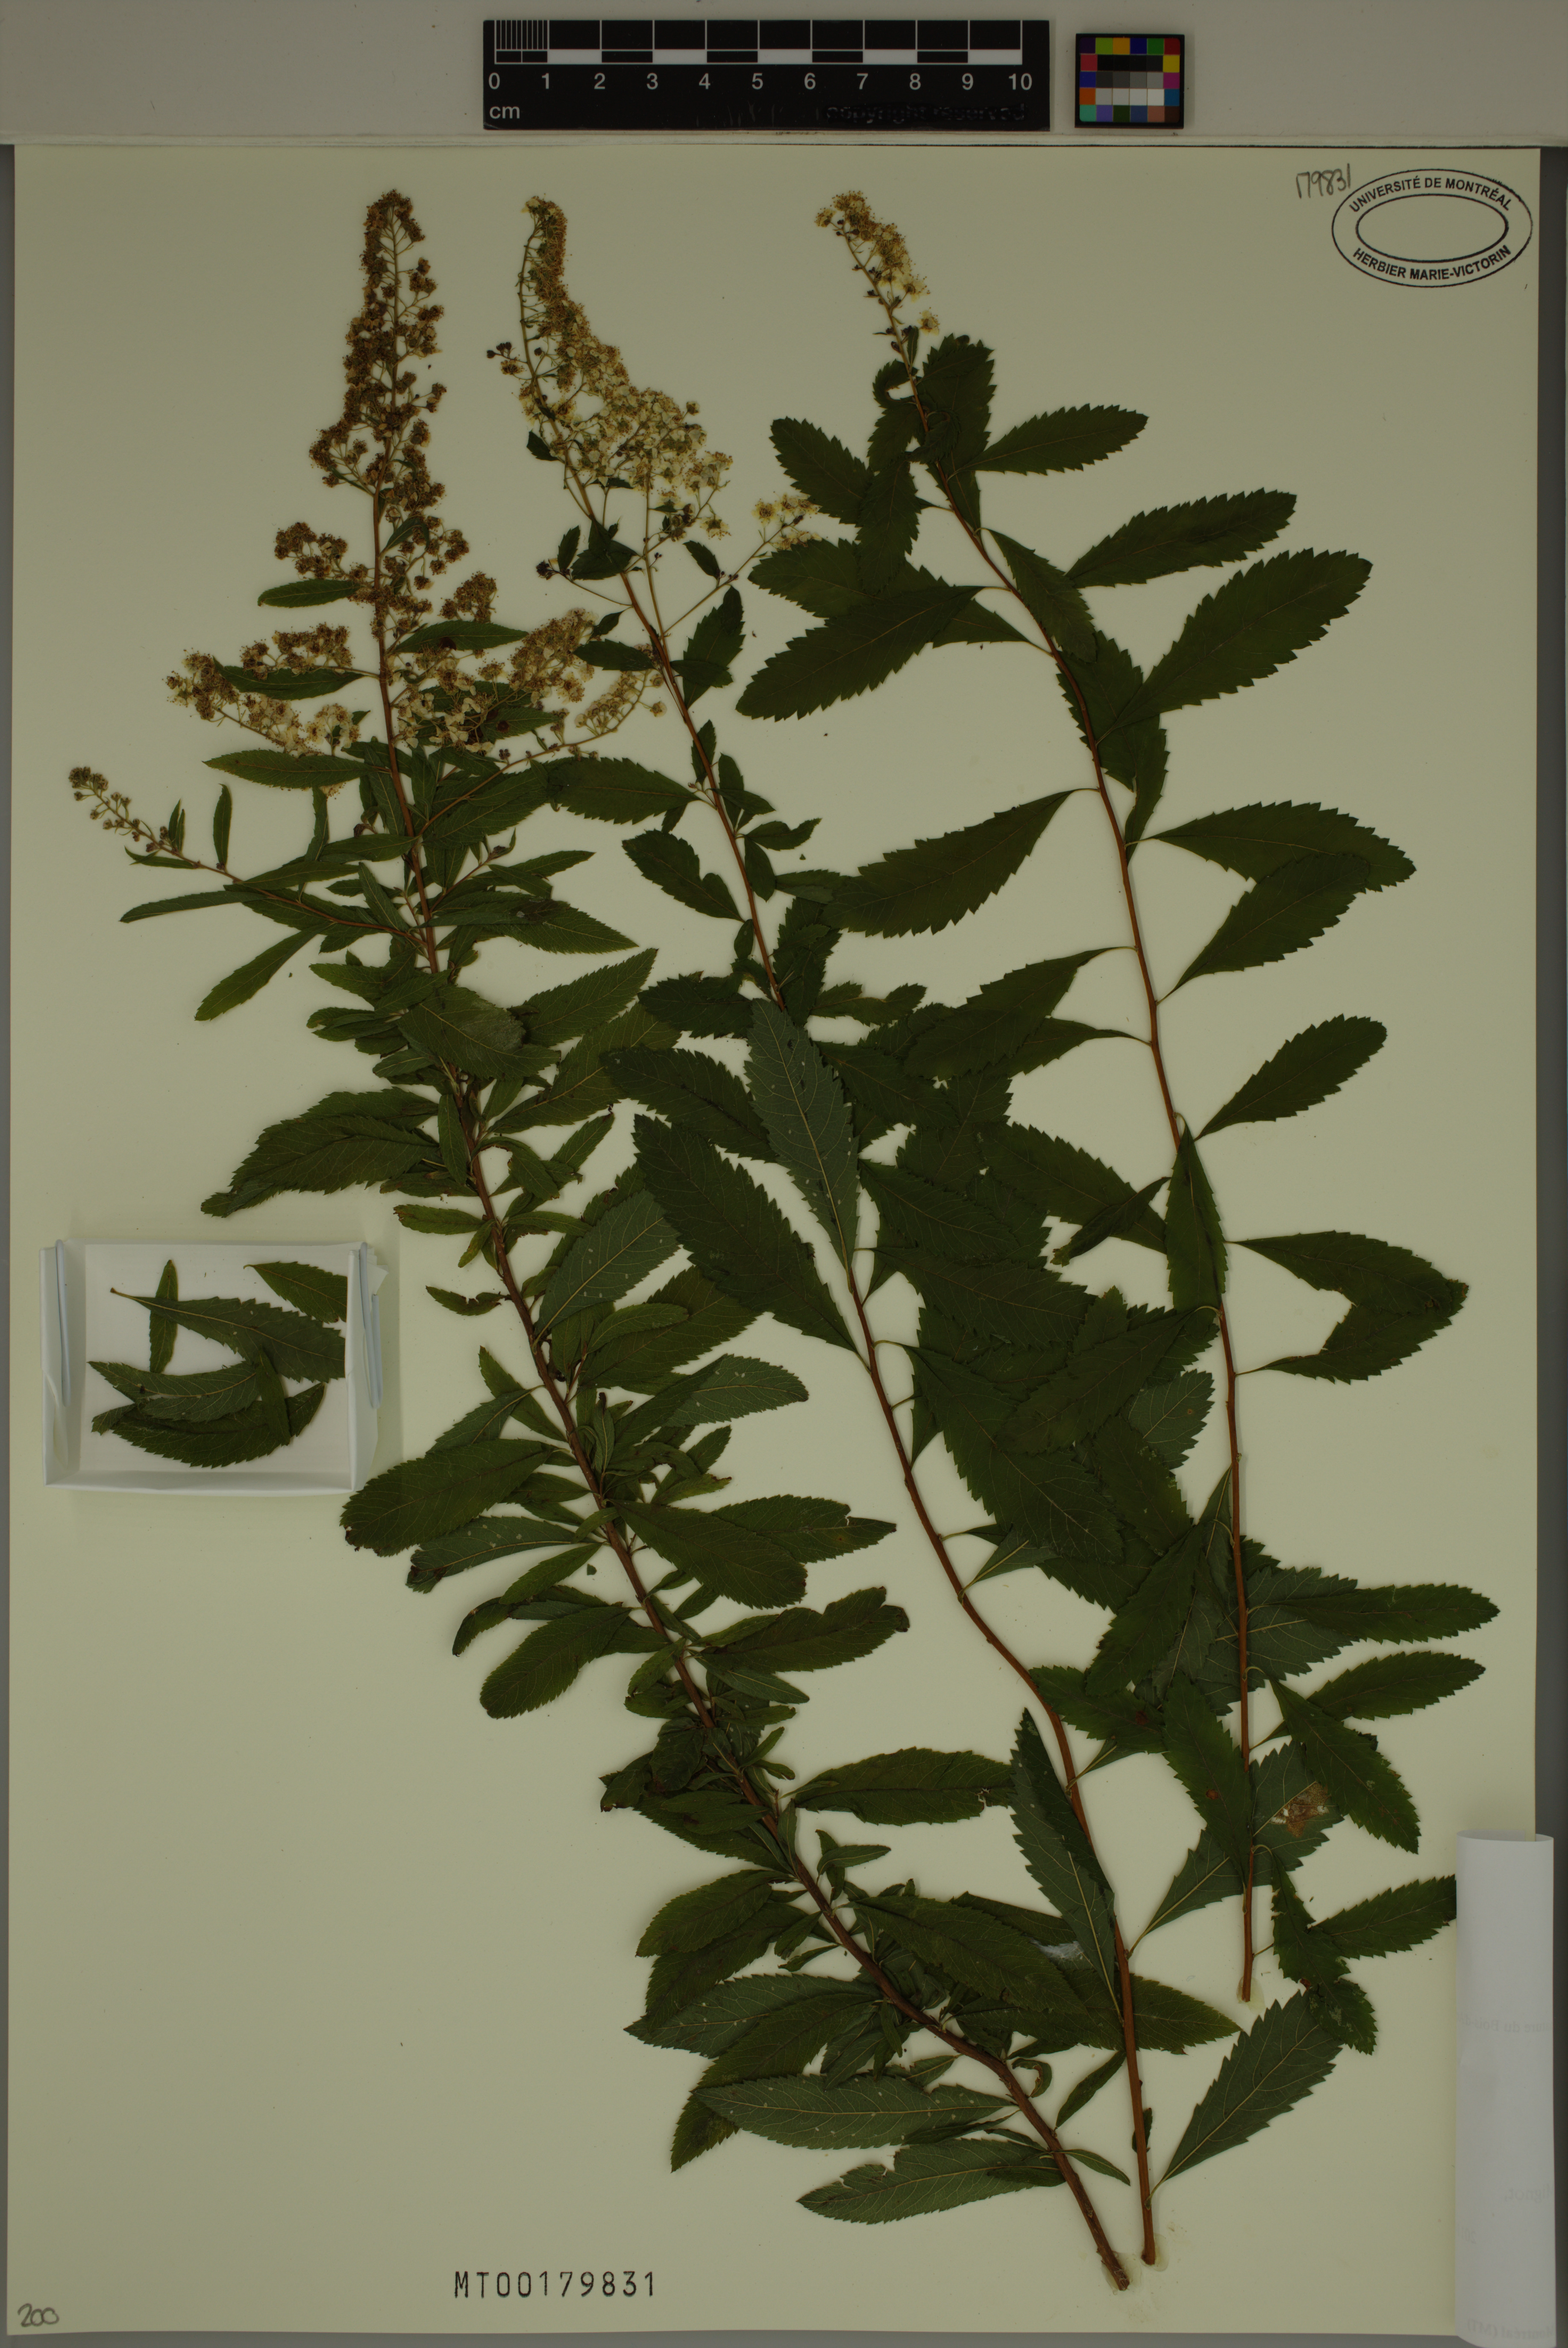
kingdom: Plantae
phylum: Tracheophyta
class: Magnoliopsida
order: Rosales
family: Rosaceae
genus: Spiraea
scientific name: Spiraea alba
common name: Pale bridewort
